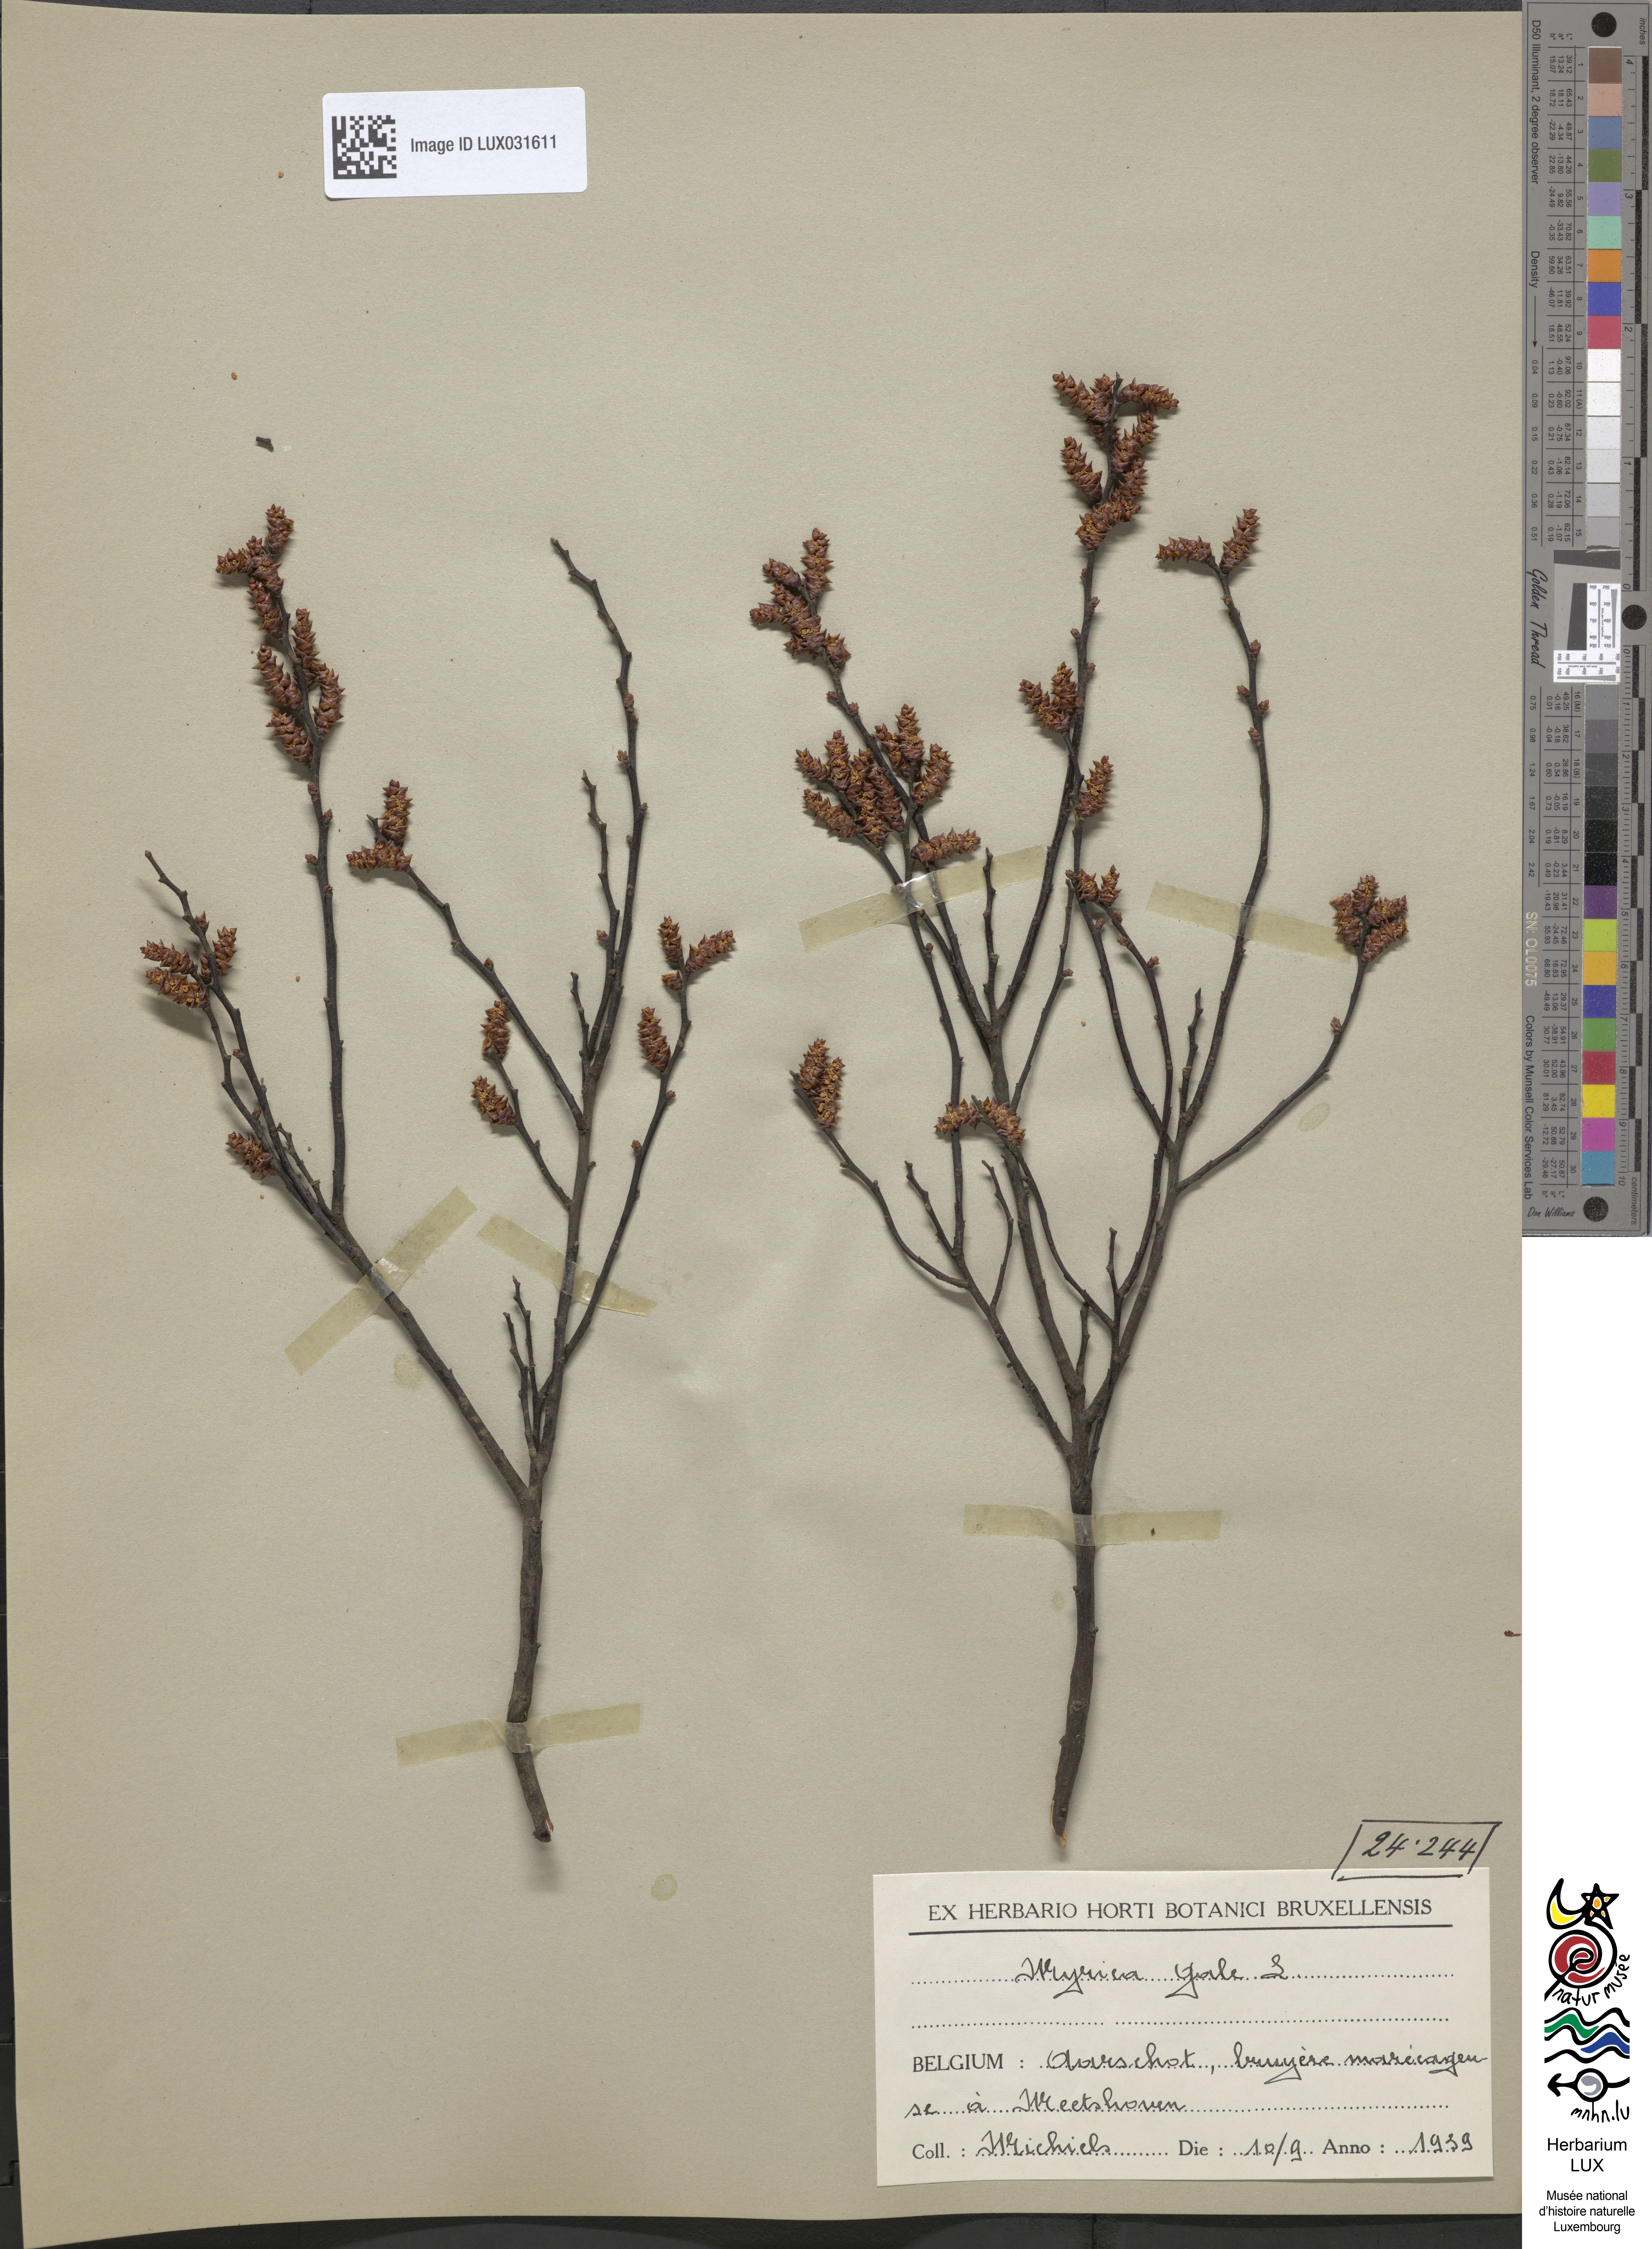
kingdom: Plantae
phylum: Tracheophyta
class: Magnoliopsida
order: Fagales
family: Myricaceae
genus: Myrica
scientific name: Myrica gale
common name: Sweet gale
